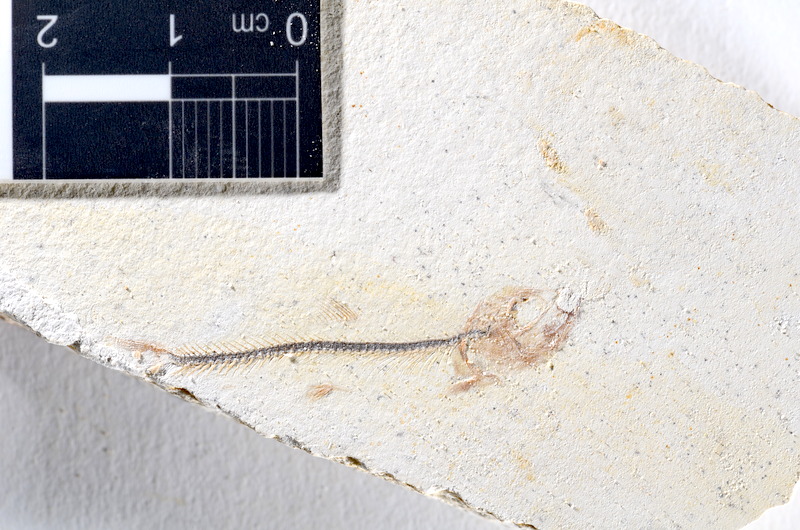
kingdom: Animalia
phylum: Chordata
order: Salmoniformes
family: Orthogonikleithridae
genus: Orthogonikleithrus
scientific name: Orthogonikleithrus hoelli
